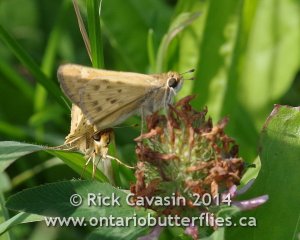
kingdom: Animalia
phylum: Arthropoda
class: Insecta
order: Lepidoptera
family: Hesperiidae
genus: Hylephila
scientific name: Hylephila phyleus
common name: Fiery Skipper
